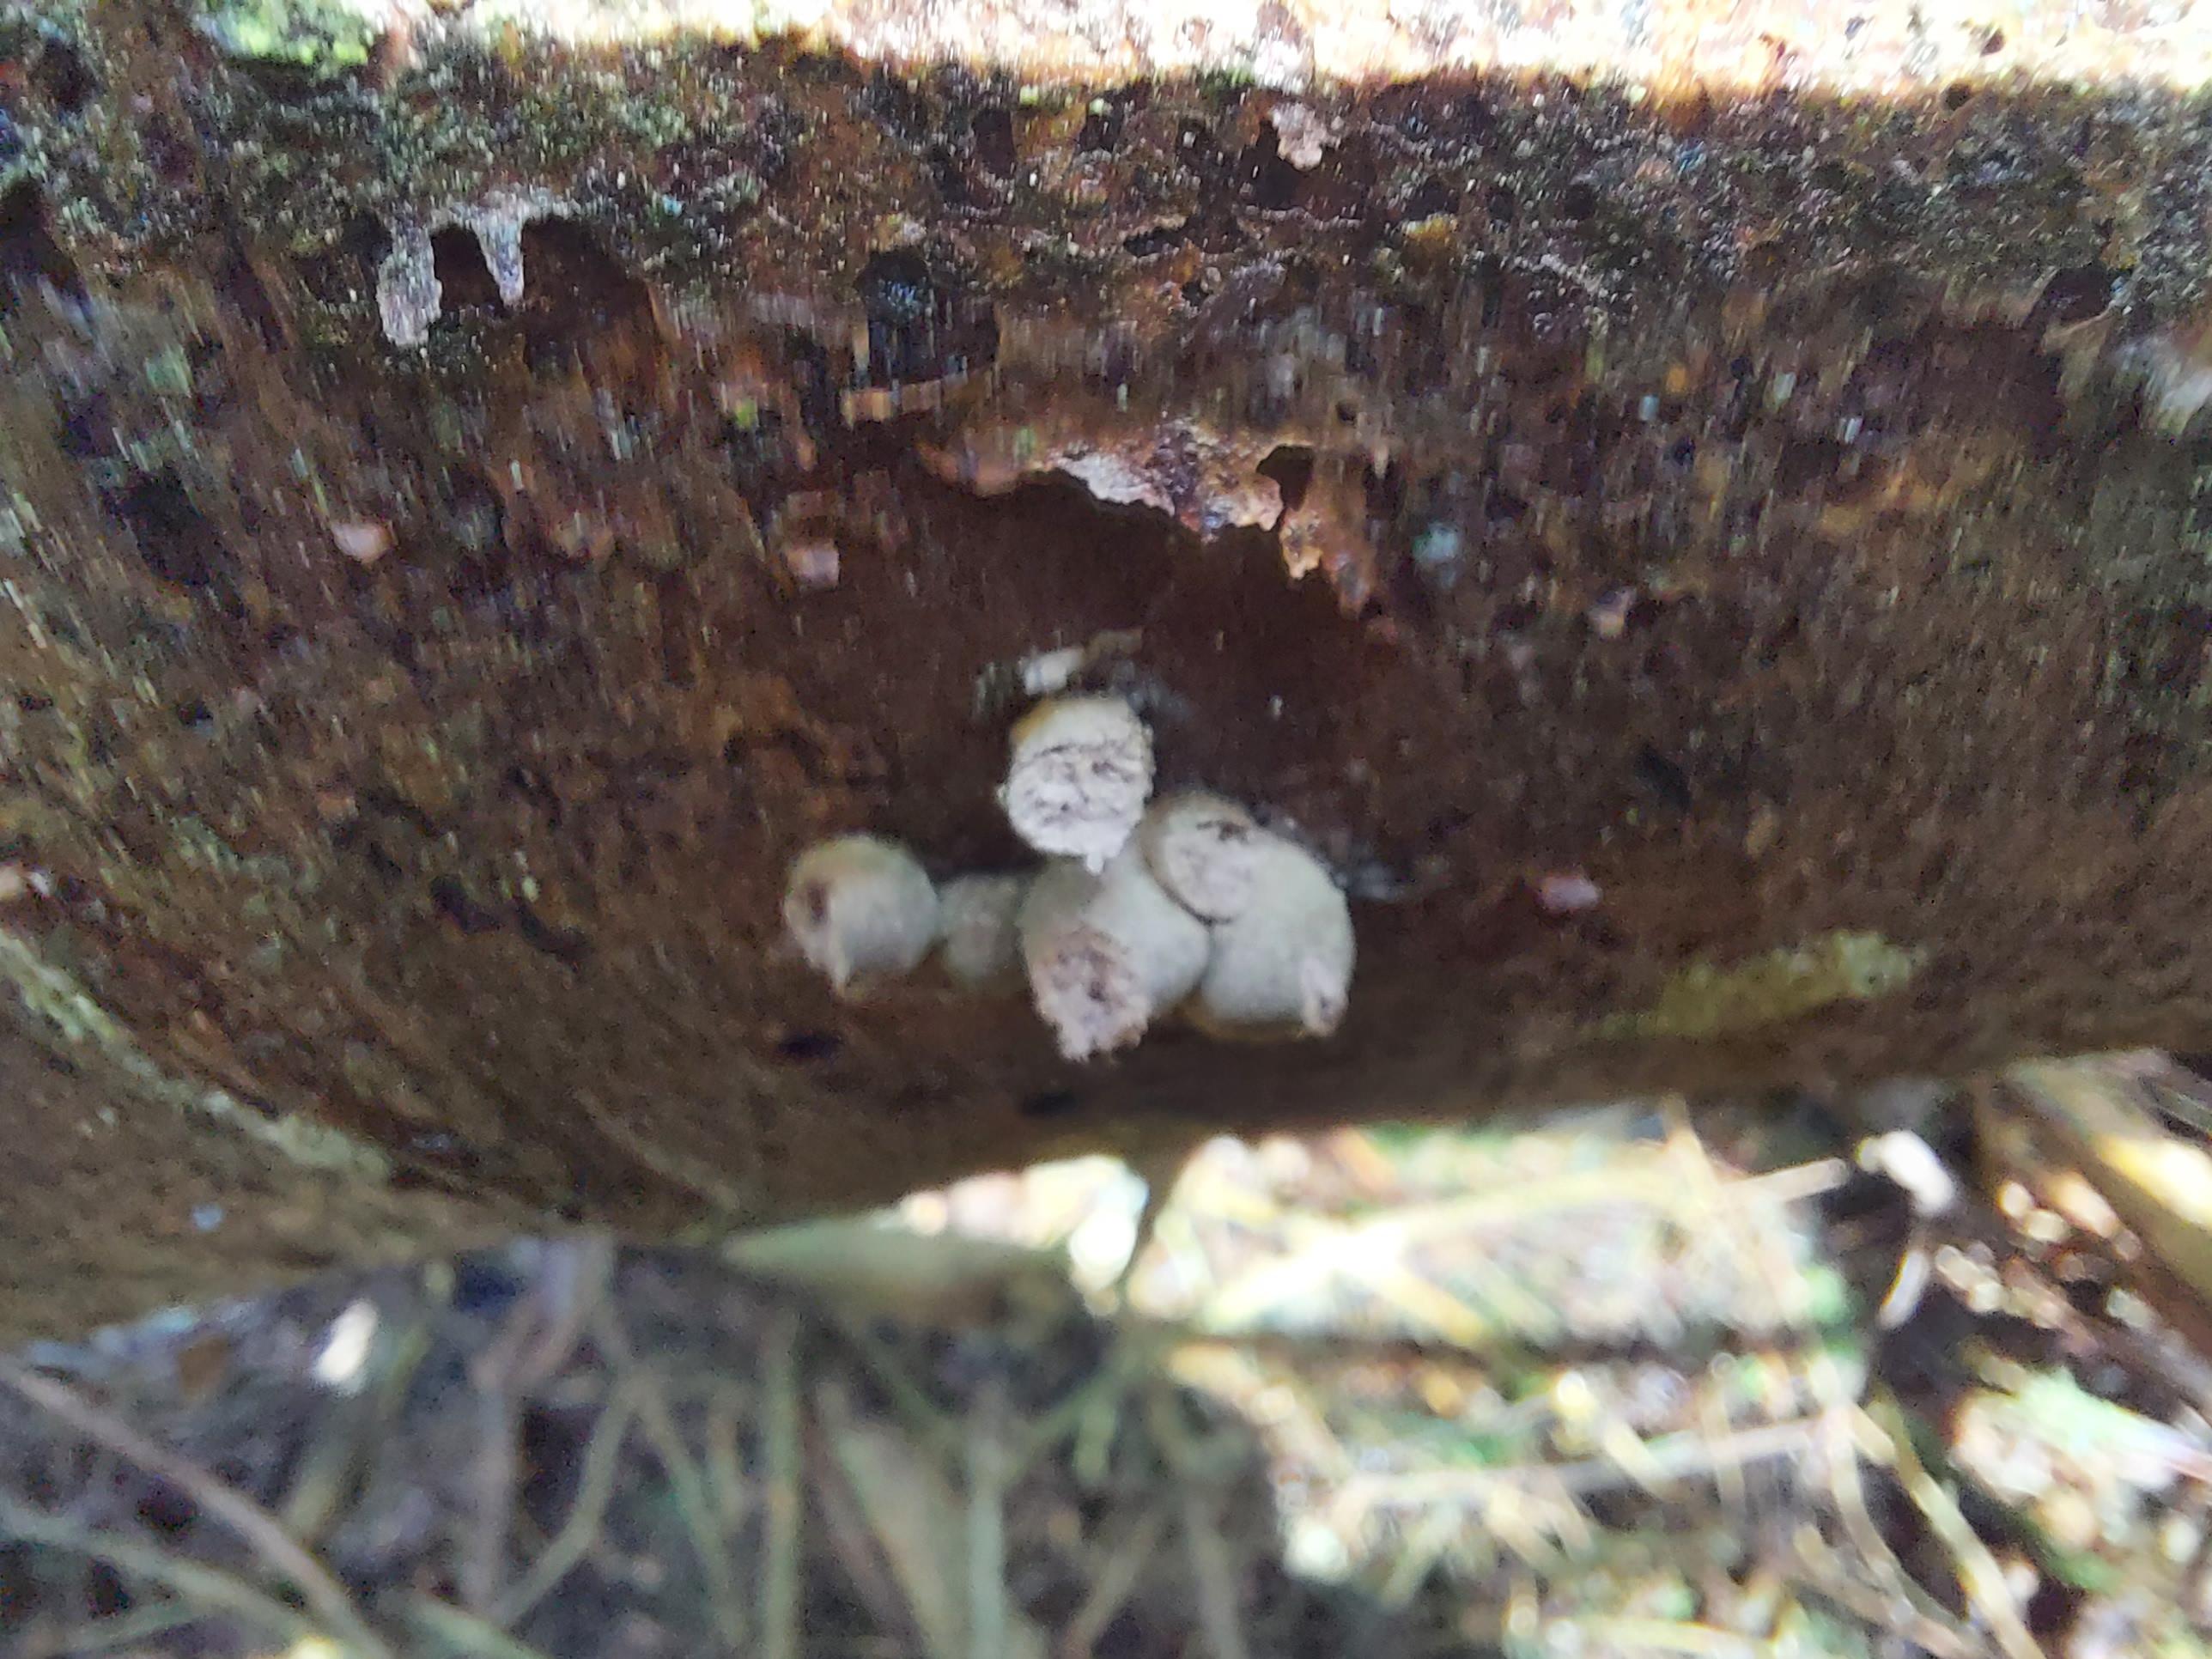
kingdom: Protozoa
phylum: Mycetozoa
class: Myxomycetes
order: Cribrariales
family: Tubiferaceae
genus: Lycogala
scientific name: Lycogala epidendrum
